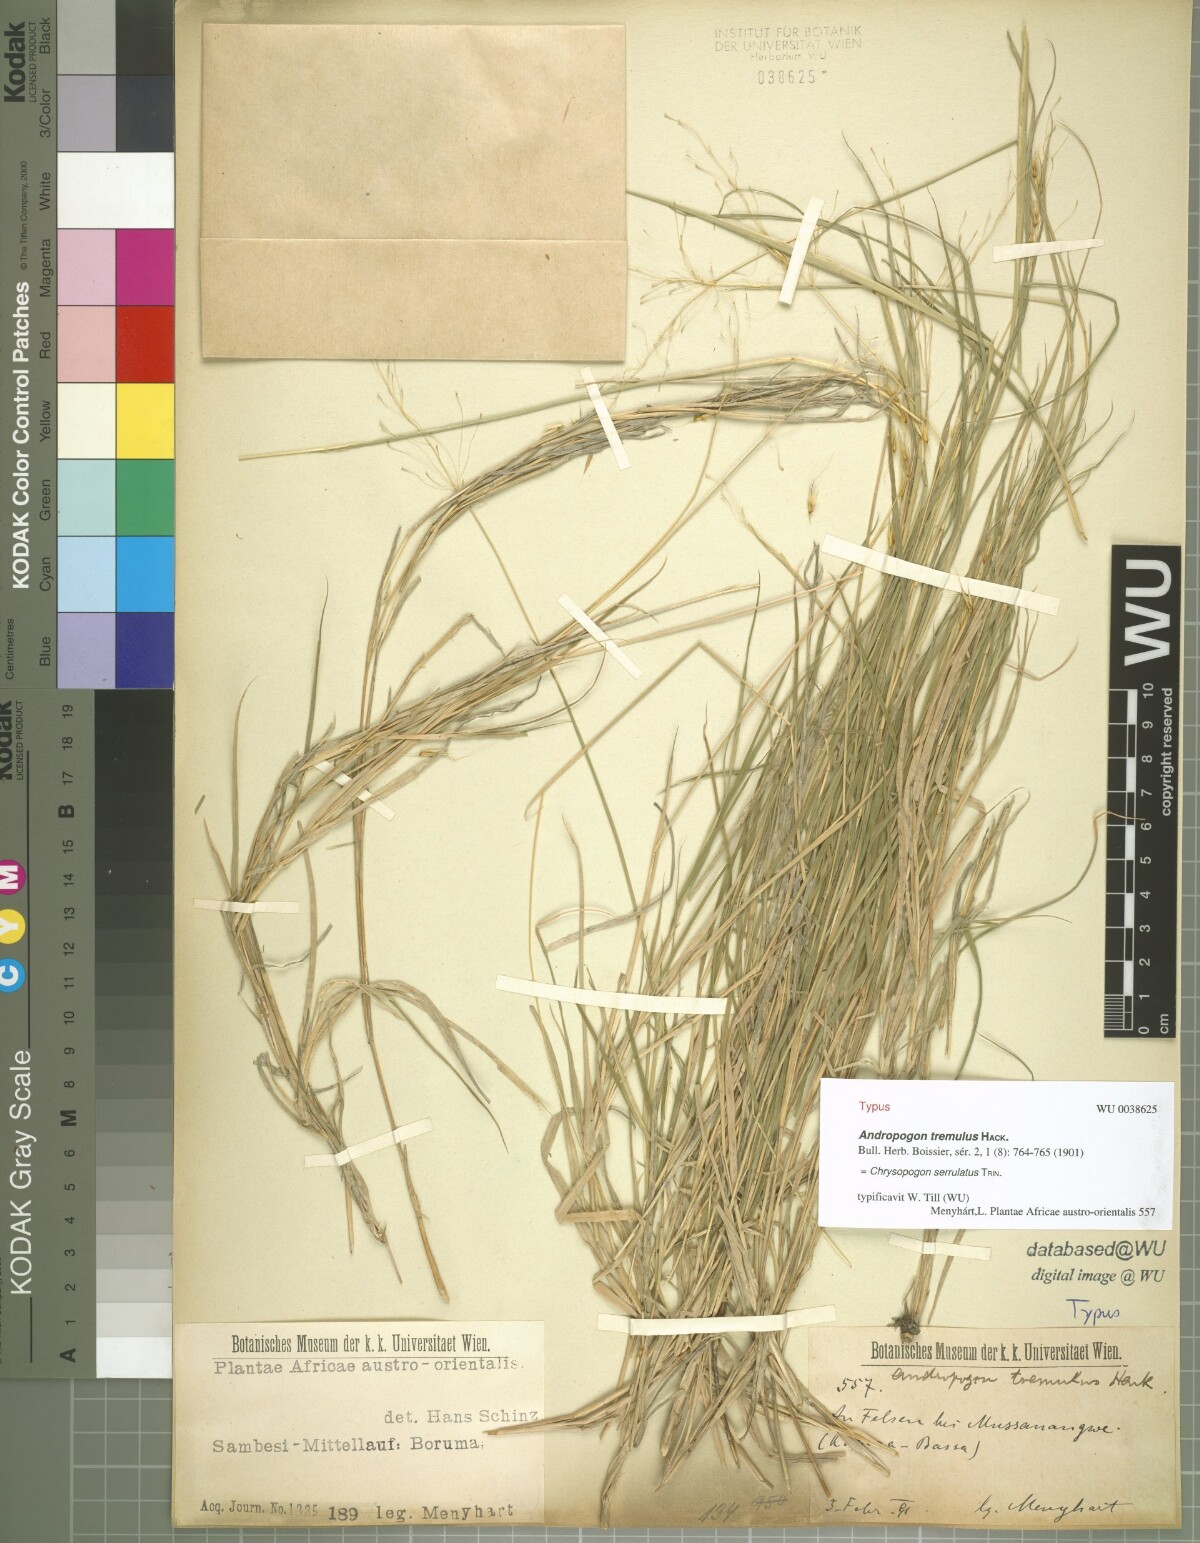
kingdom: Plantae
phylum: Tracheophyta
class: Liliopsida
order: Poales
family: Poaceae
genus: Chrysopogon
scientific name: Chrysopogon serrulatus
